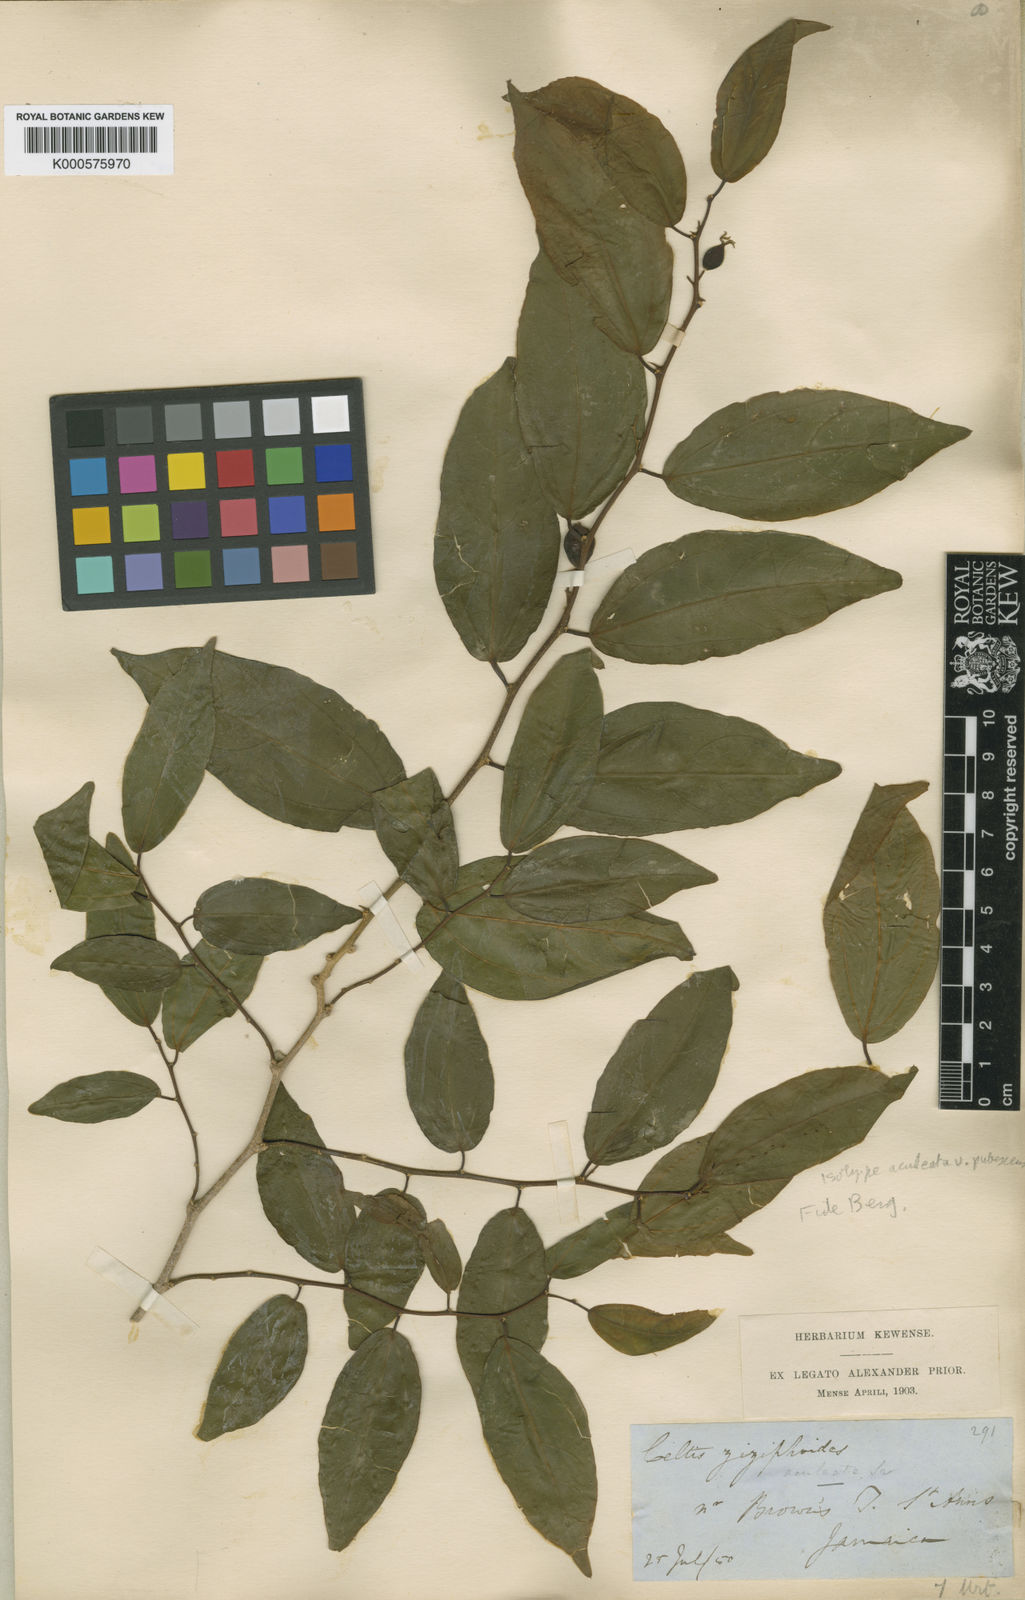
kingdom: Plantae
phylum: Tracheophyta
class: Magnoliopsida
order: Rosales
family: Cannabaceae
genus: Celtis
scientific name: Celtis iguanaea
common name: Iguana hackberry
